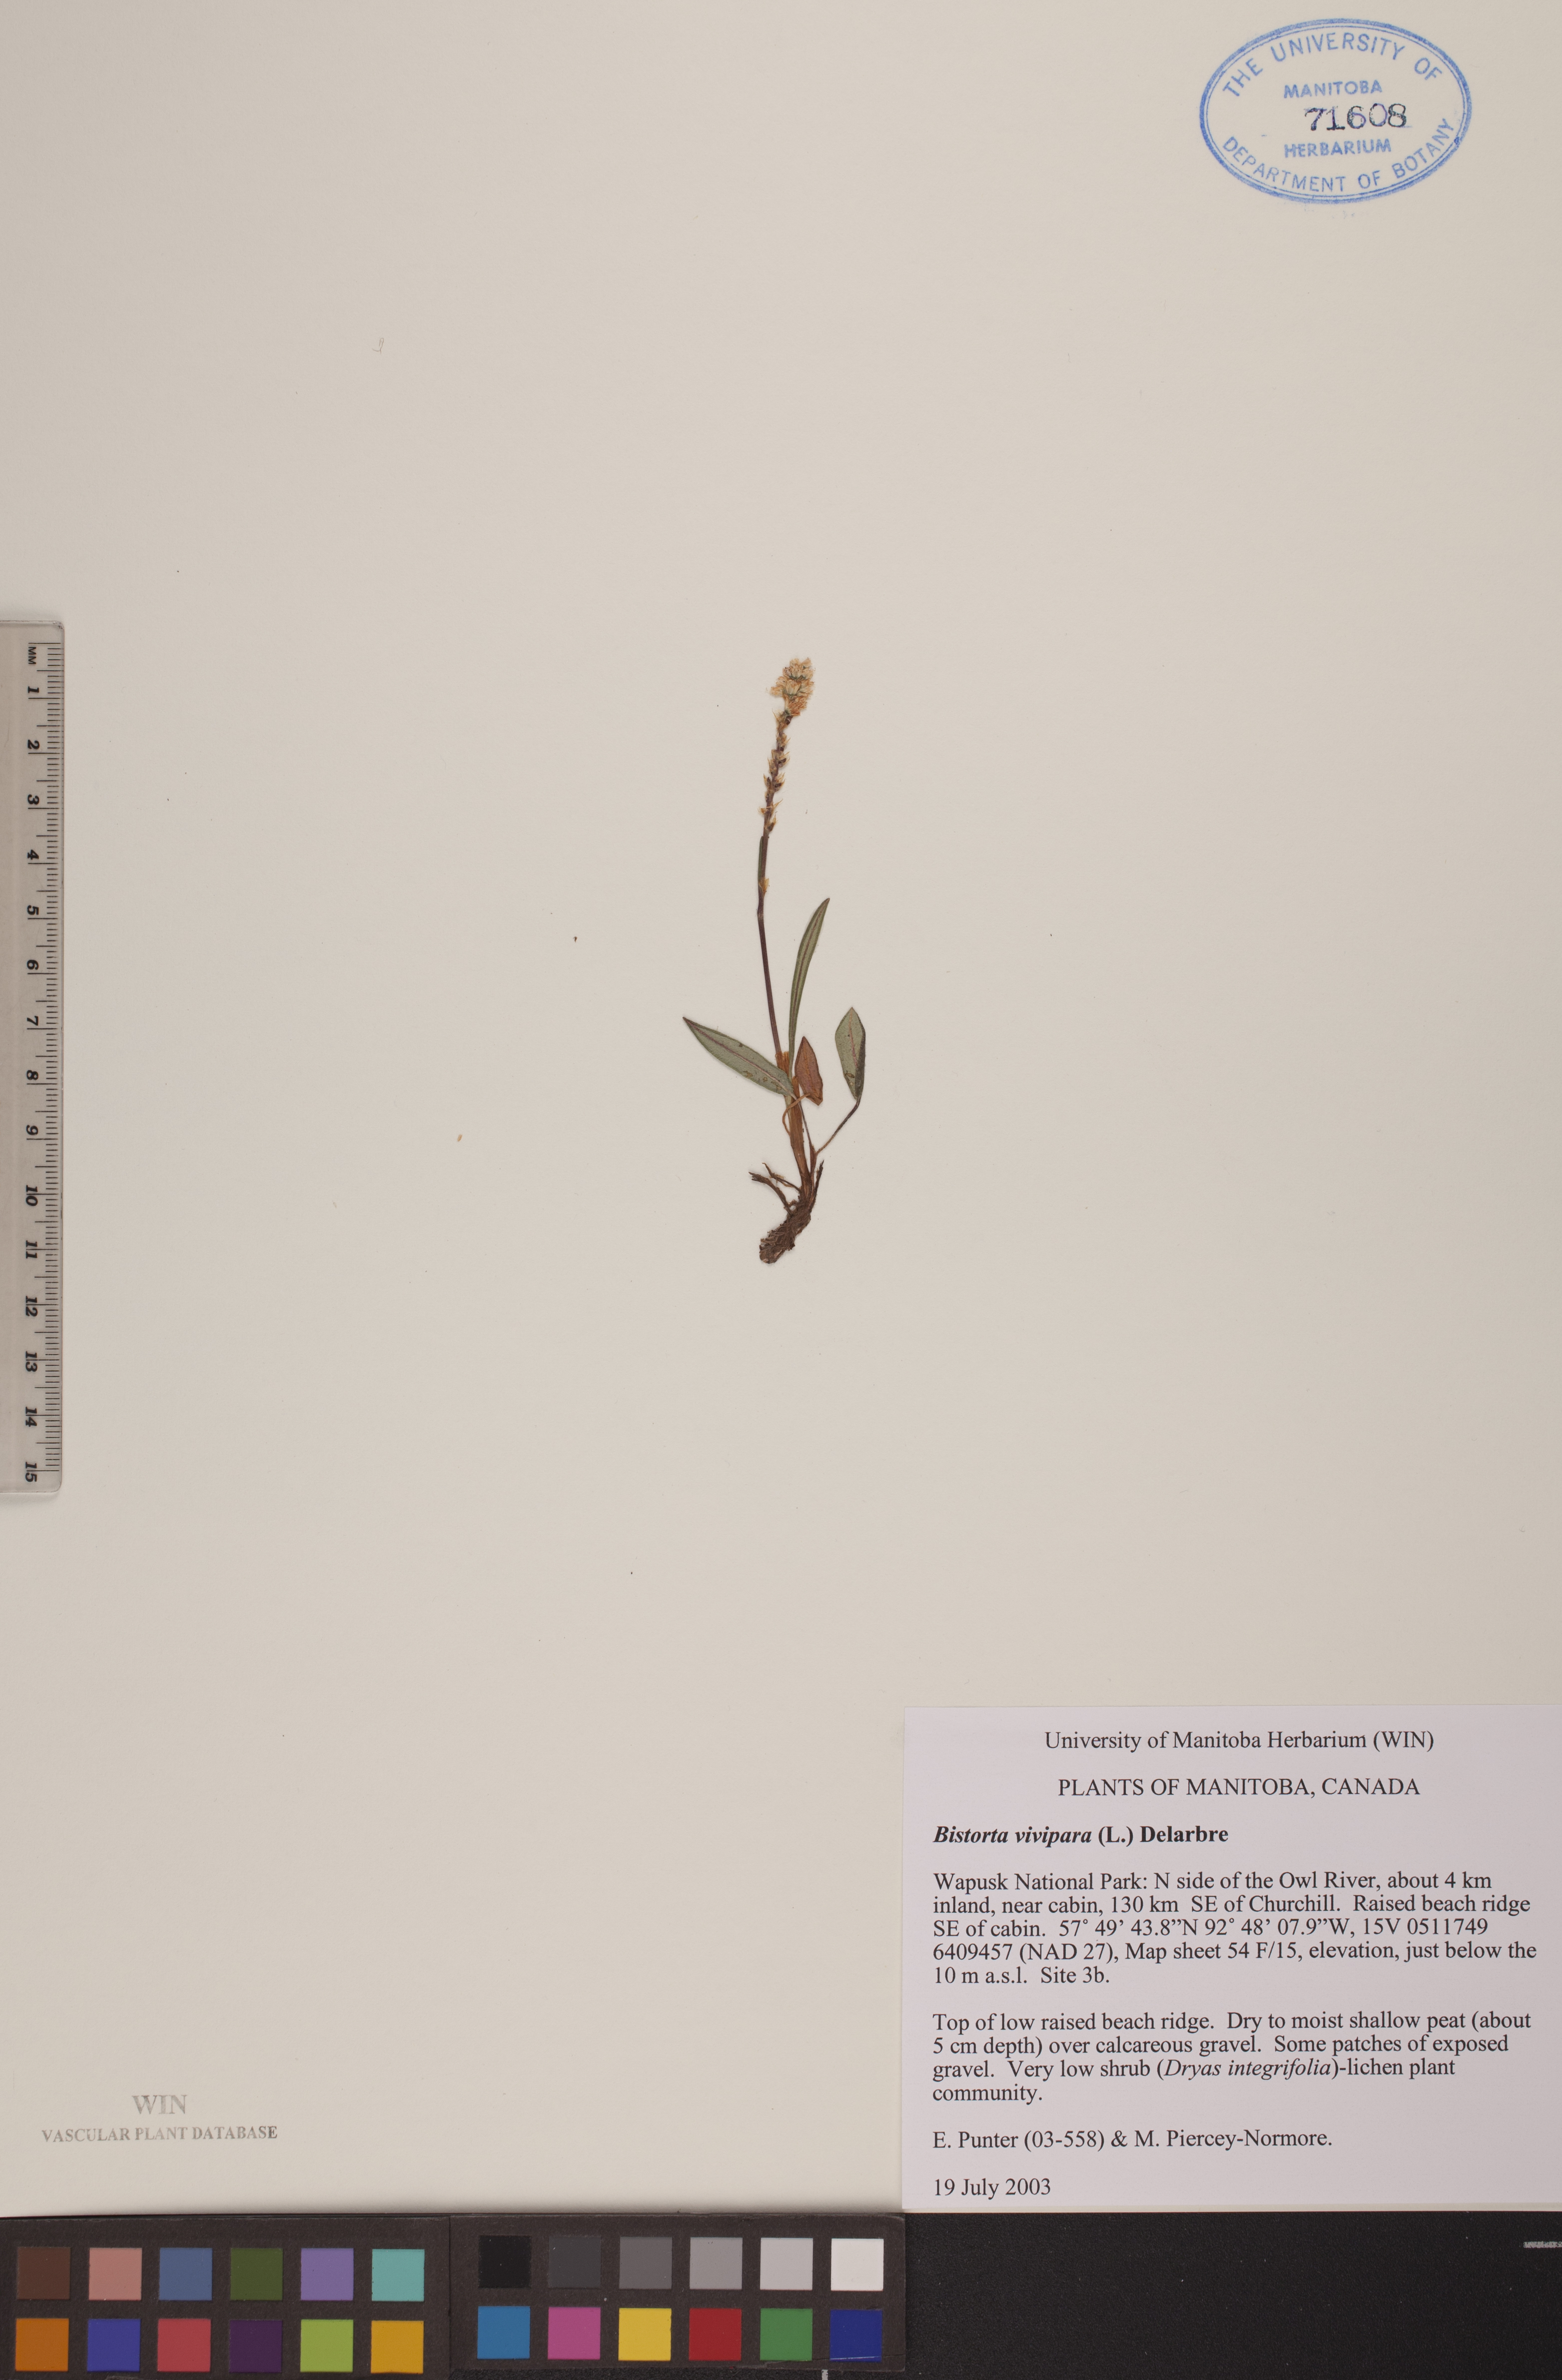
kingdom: Plantae
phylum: Tracheophyta
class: Magnoliopsida
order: Caryophyllales
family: Polygonaceae
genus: Bistorta
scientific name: Bistorta vivipara
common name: Alpine bistort
